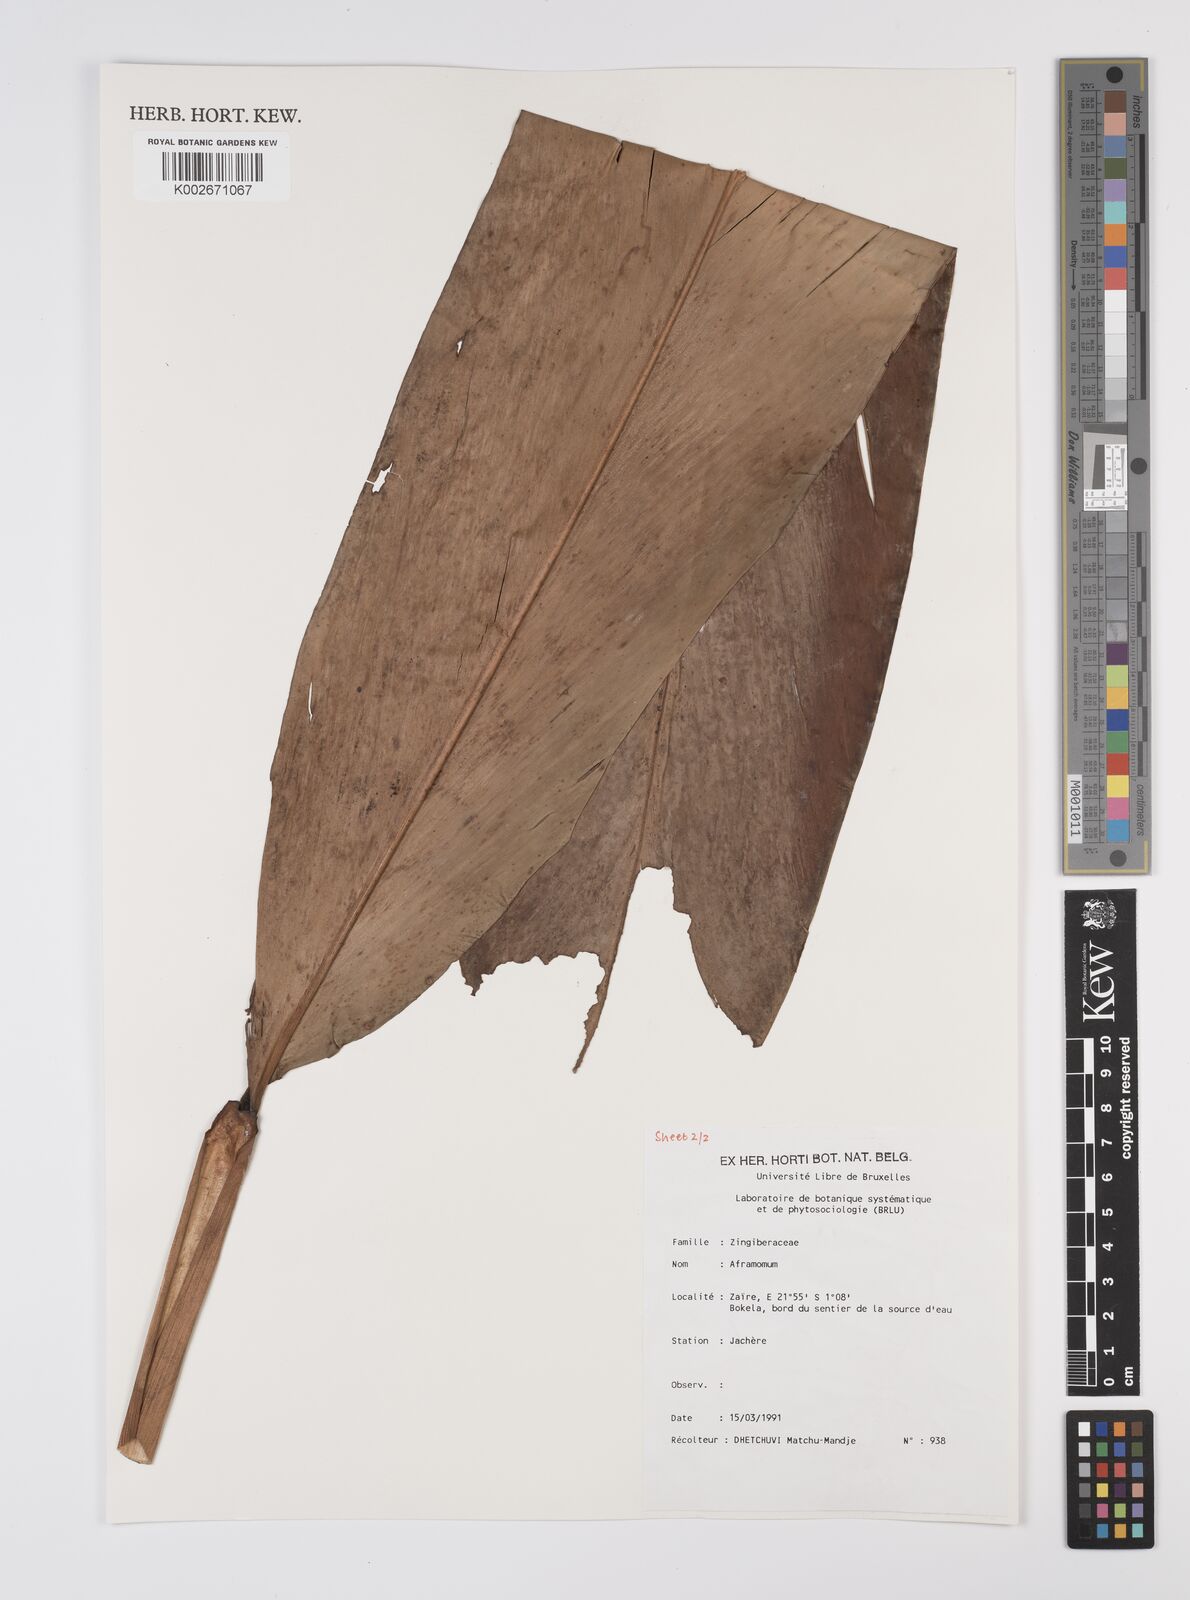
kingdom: Plantae
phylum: Tracheophyta
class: Liliopsida
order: Zingiberales
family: Zingiberaceae
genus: Aframomum
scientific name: Aframomum angustifolium
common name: Guinea grains
